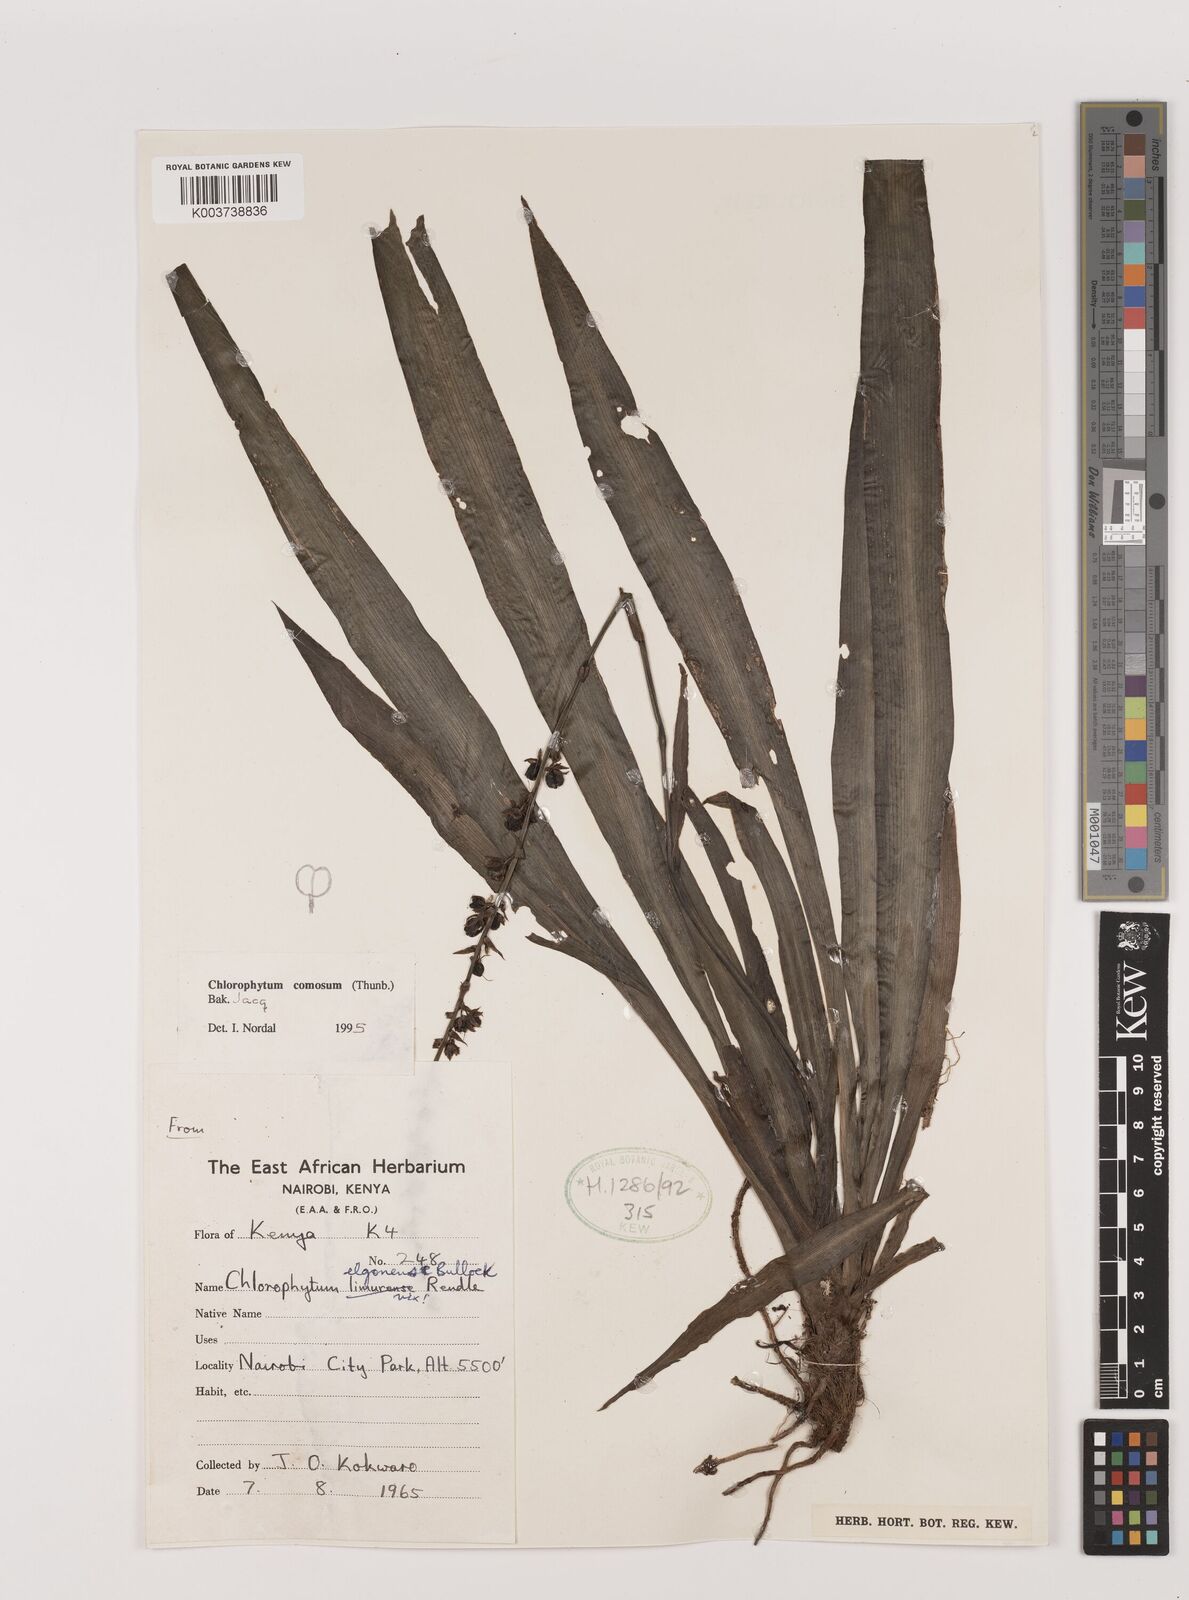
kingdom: Plantae
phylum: Tracheophyta
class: Liliopsida
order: Asparagales
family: Asparagaceae
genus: Chlorophytum
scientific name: Chlorophytum comosum
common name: Spider plant
